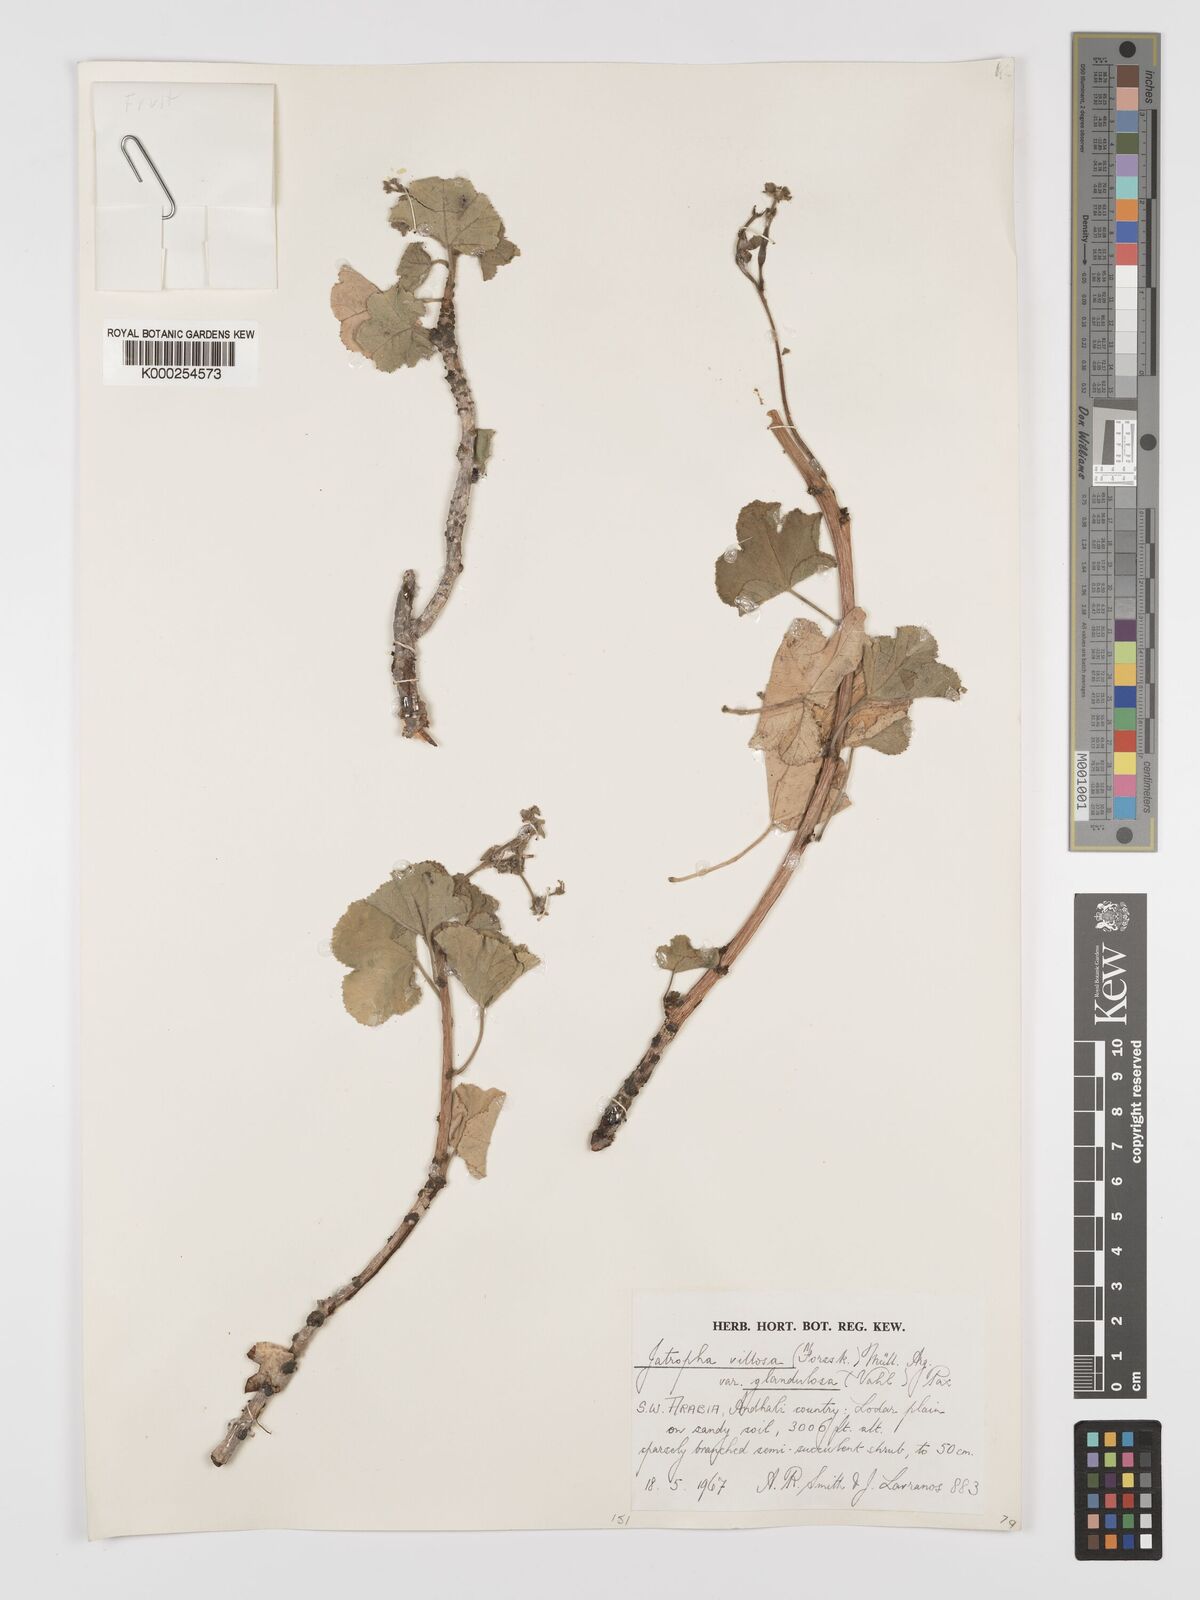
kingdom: Plantae
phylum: Tracheophyta
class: Magnoliopsida
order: Malpighiales
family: Euphorbiaceae
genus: Jatropha
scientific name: Jatropha pelargoniifolia
